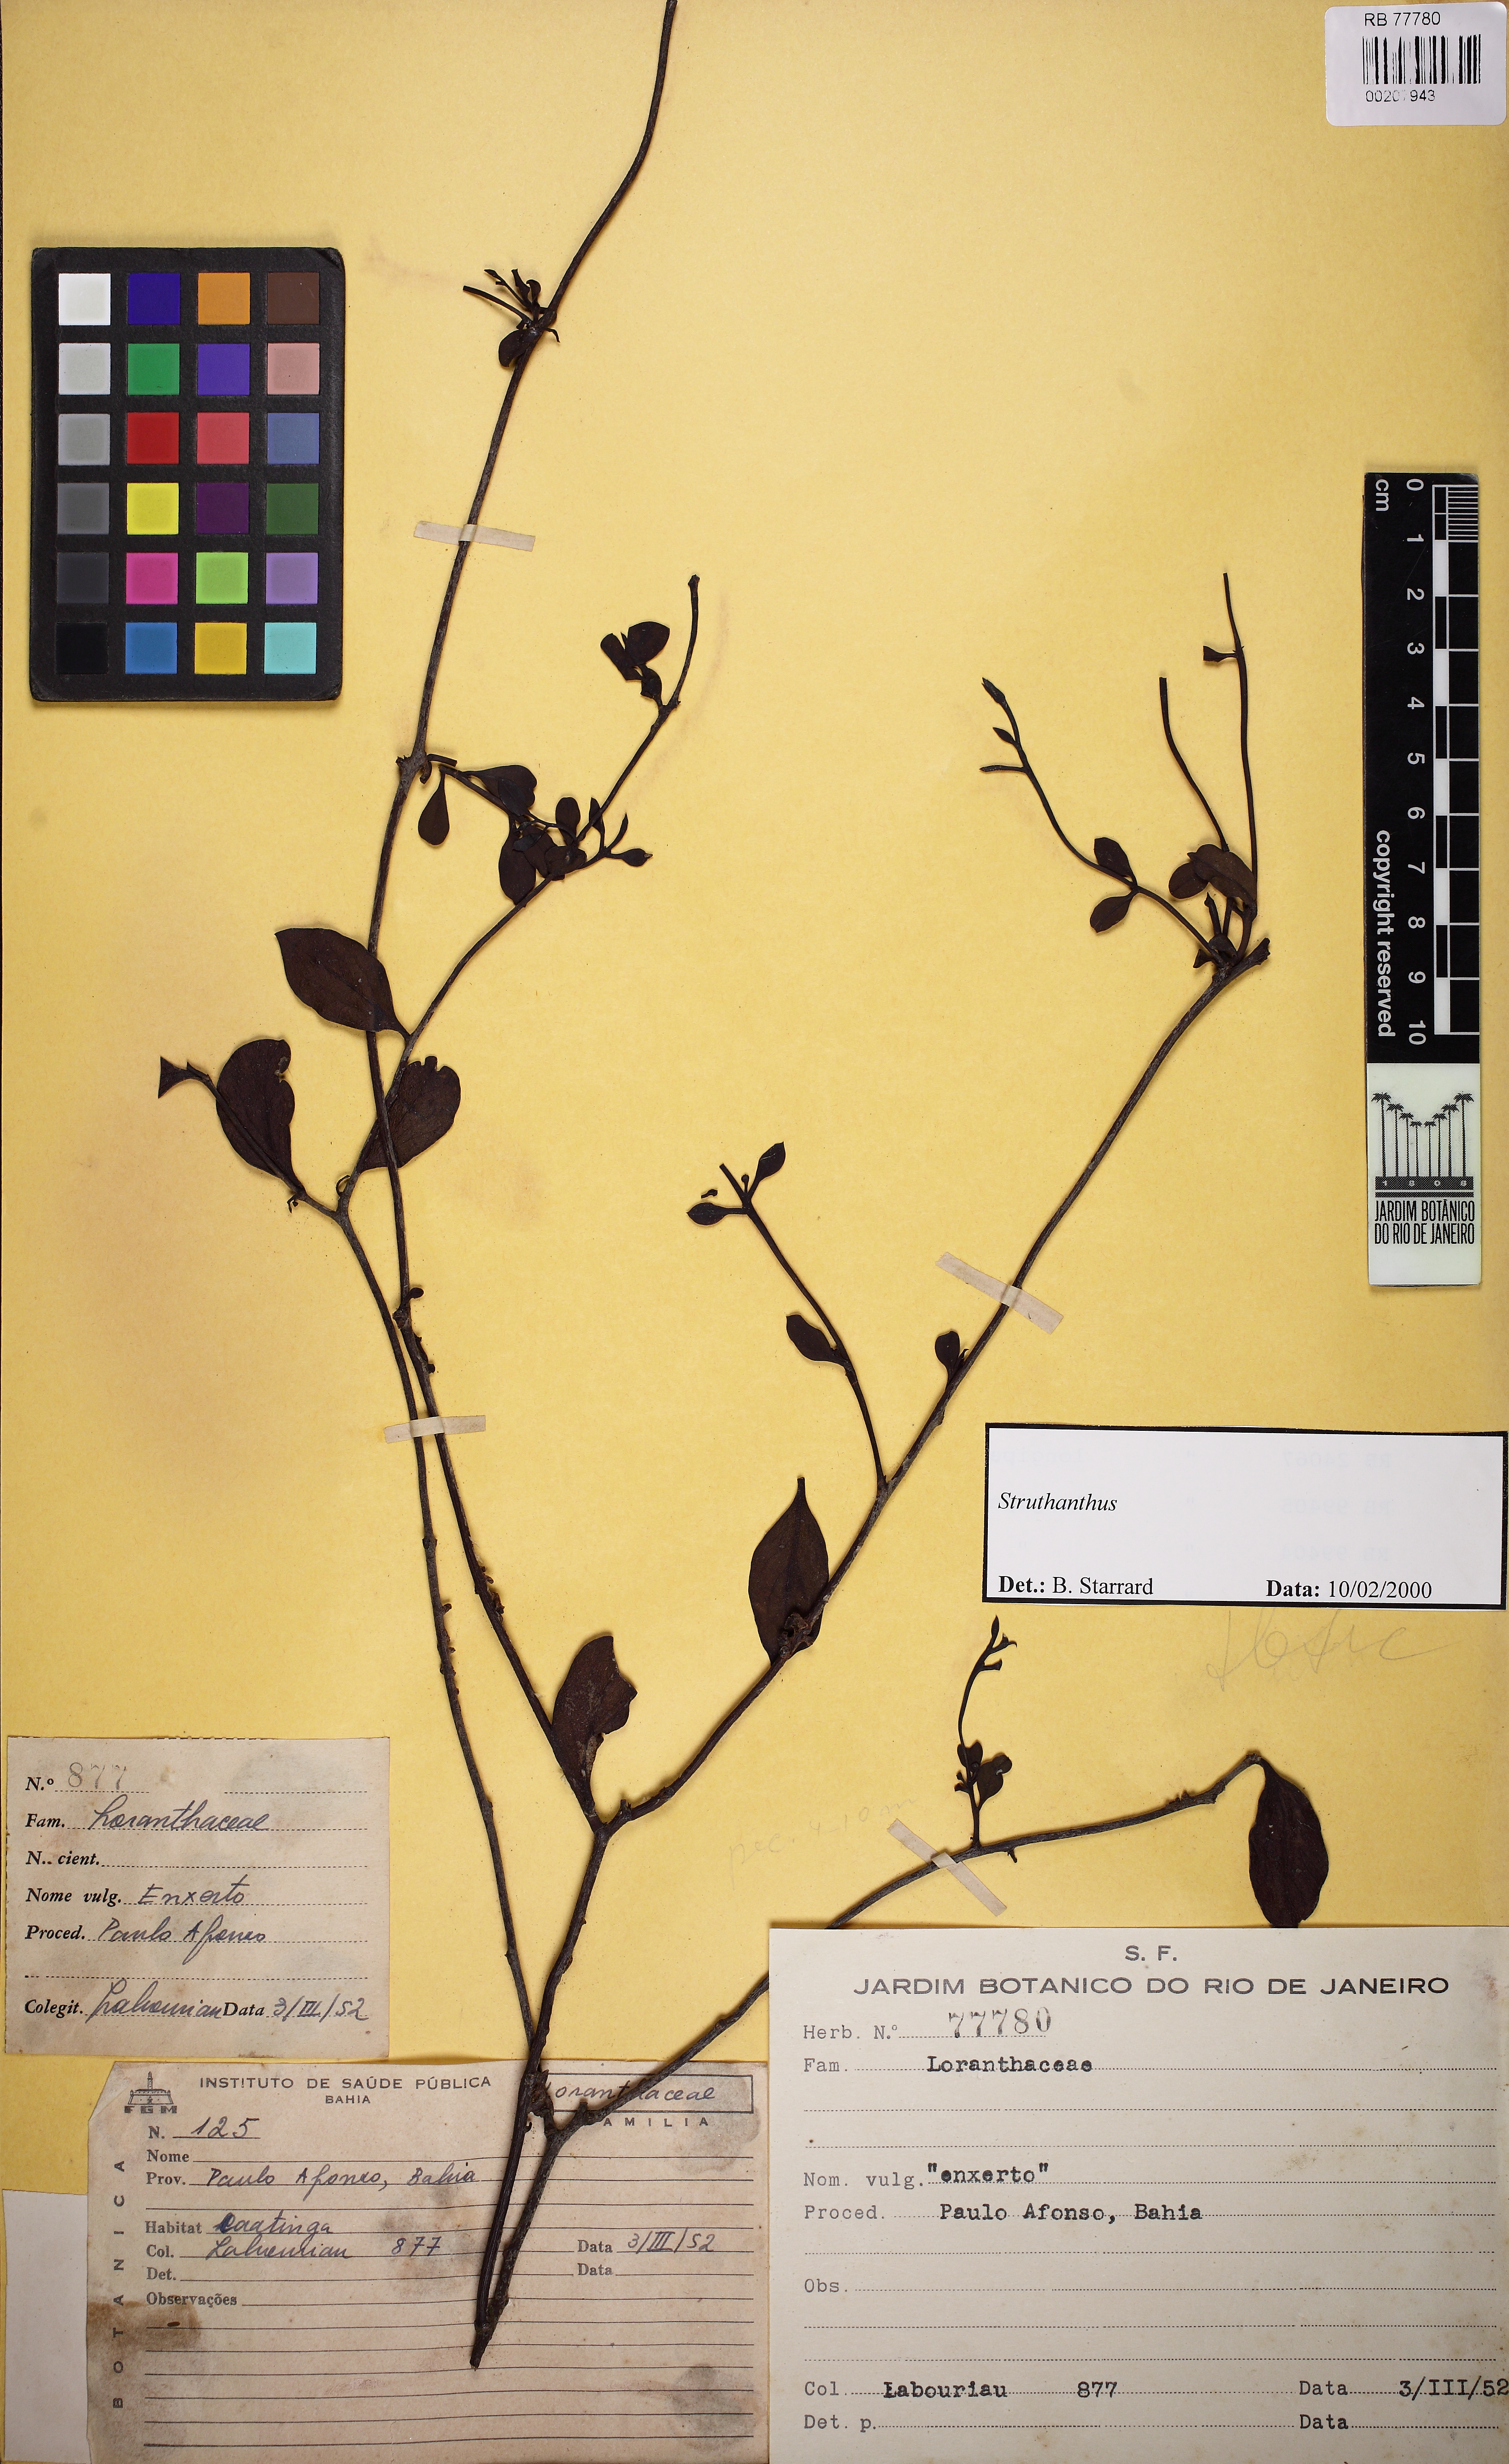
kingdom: Plantae
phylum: Tracheophyta
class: Magnoliopsida
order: Santalales
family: Loranthaceae
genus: Struthanthus
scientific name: Struthanthus
